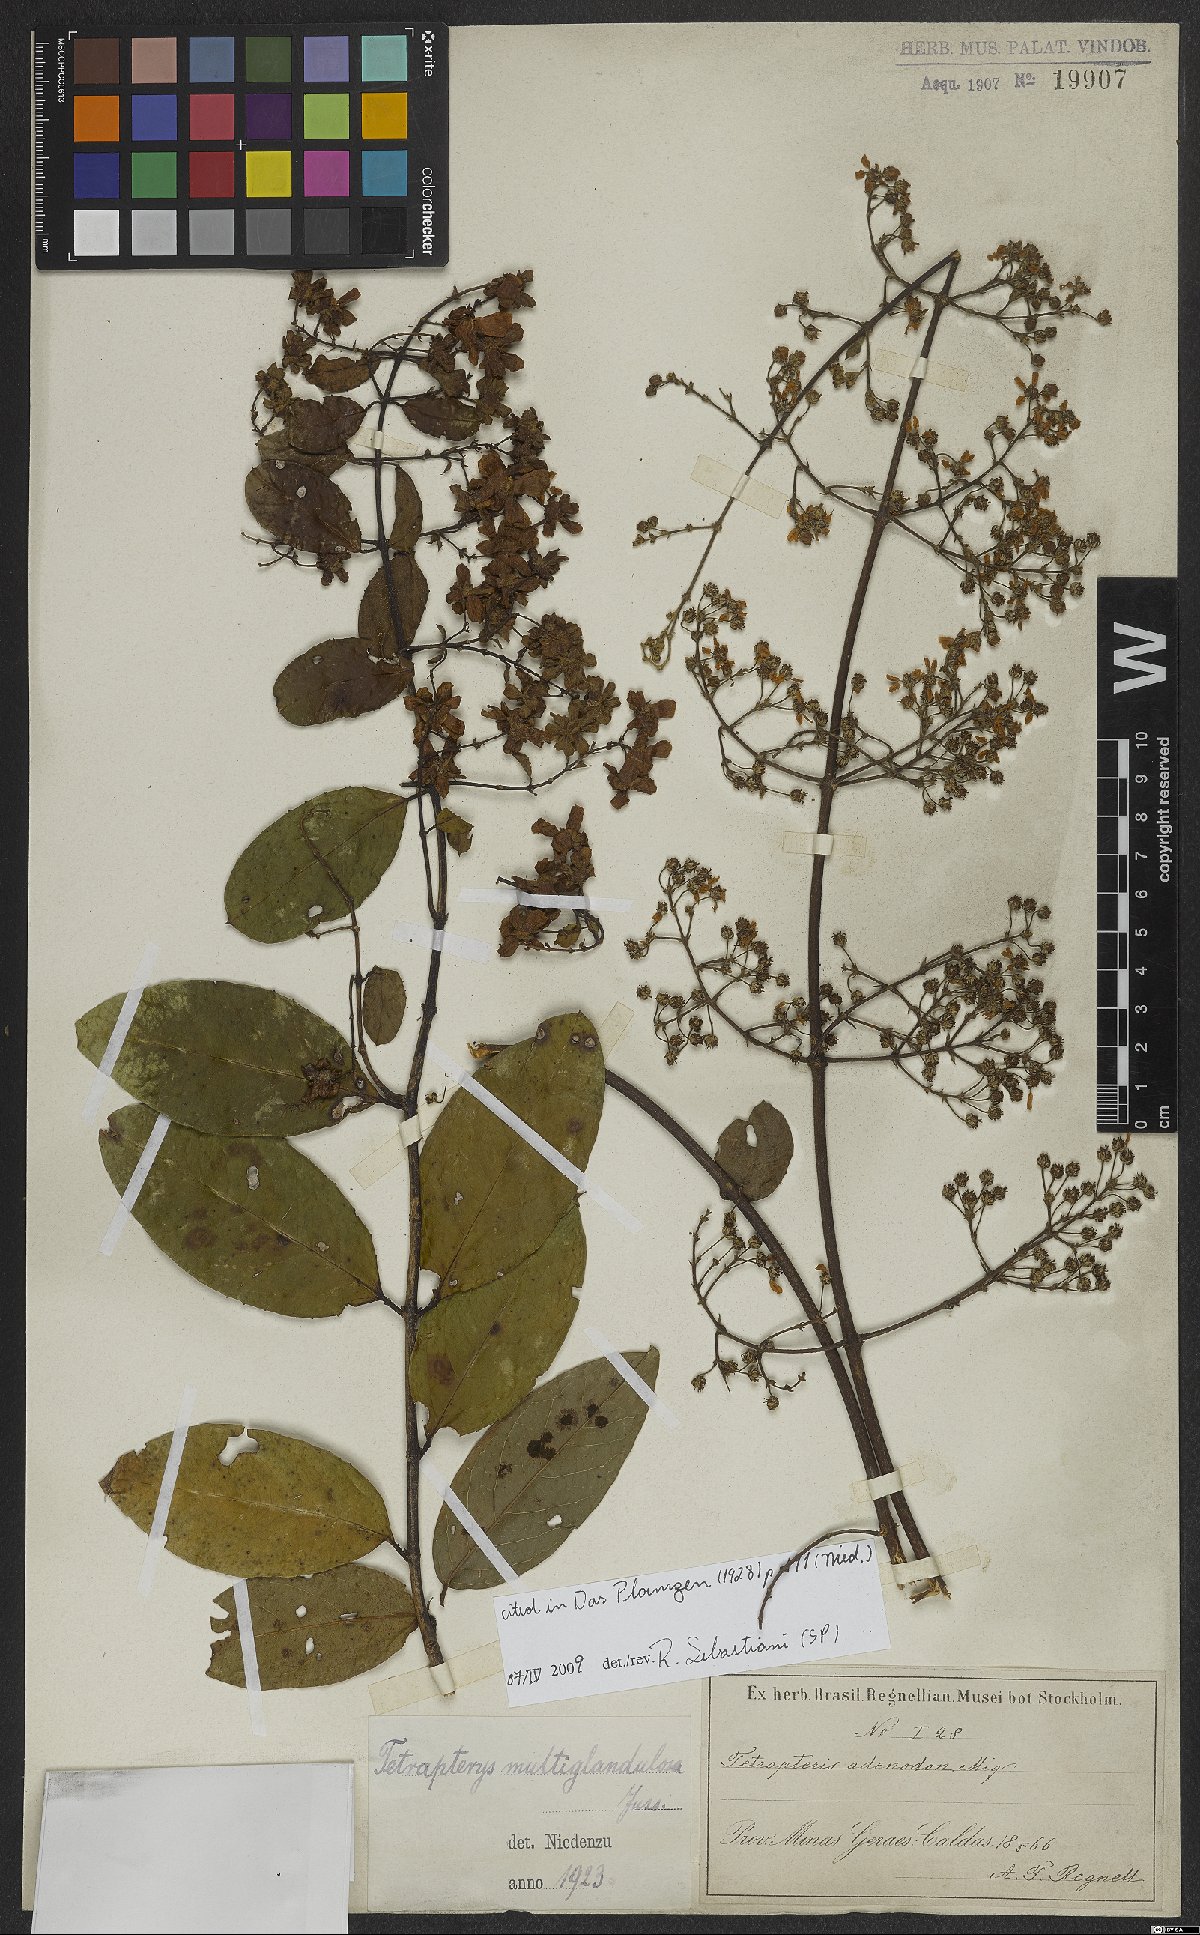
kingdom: Plantae
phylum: Tracheophyta
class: Magnoliopsida
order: Malpighiales
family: Malpighiaceae
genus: Niedenzuella
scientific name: Niedenzuella multiglandulosa
